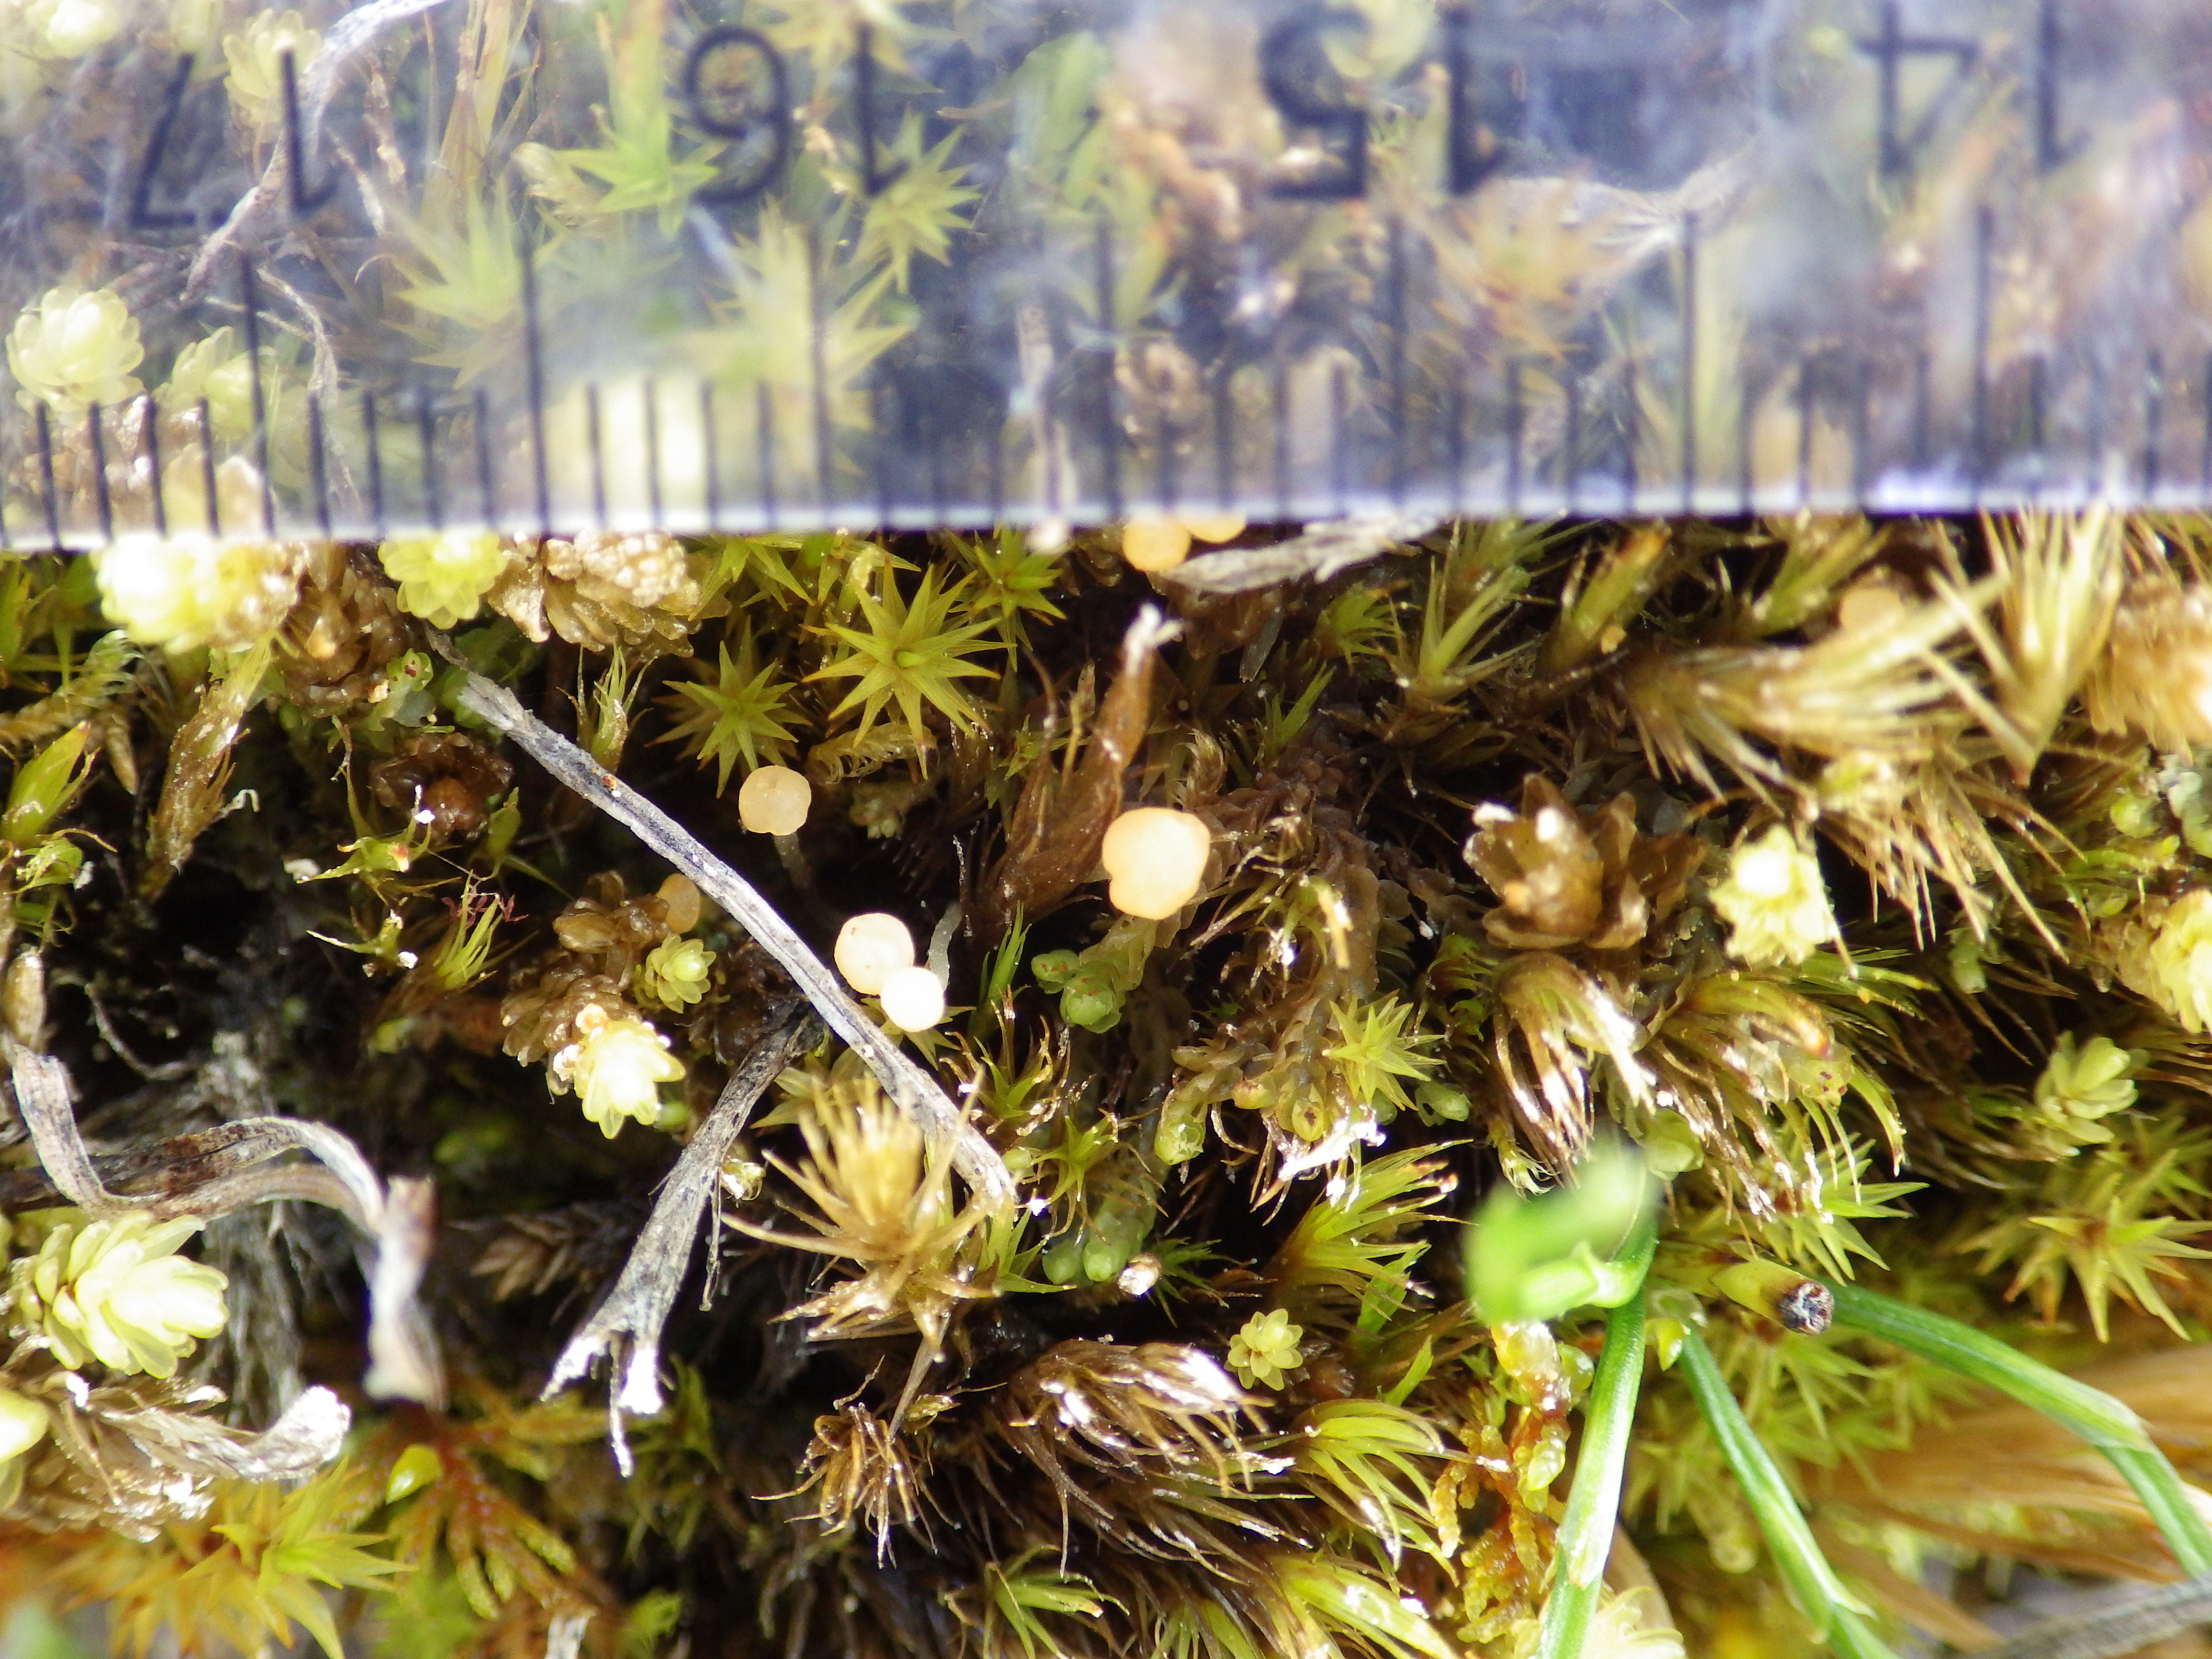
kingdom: Fungi
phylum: Ascomycota
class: Leotiomycetes
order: Helotiales
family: Bryoglossaceae
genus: Bryoglossum
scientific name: Bryoglossum gracile
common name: Fringed sawgill
